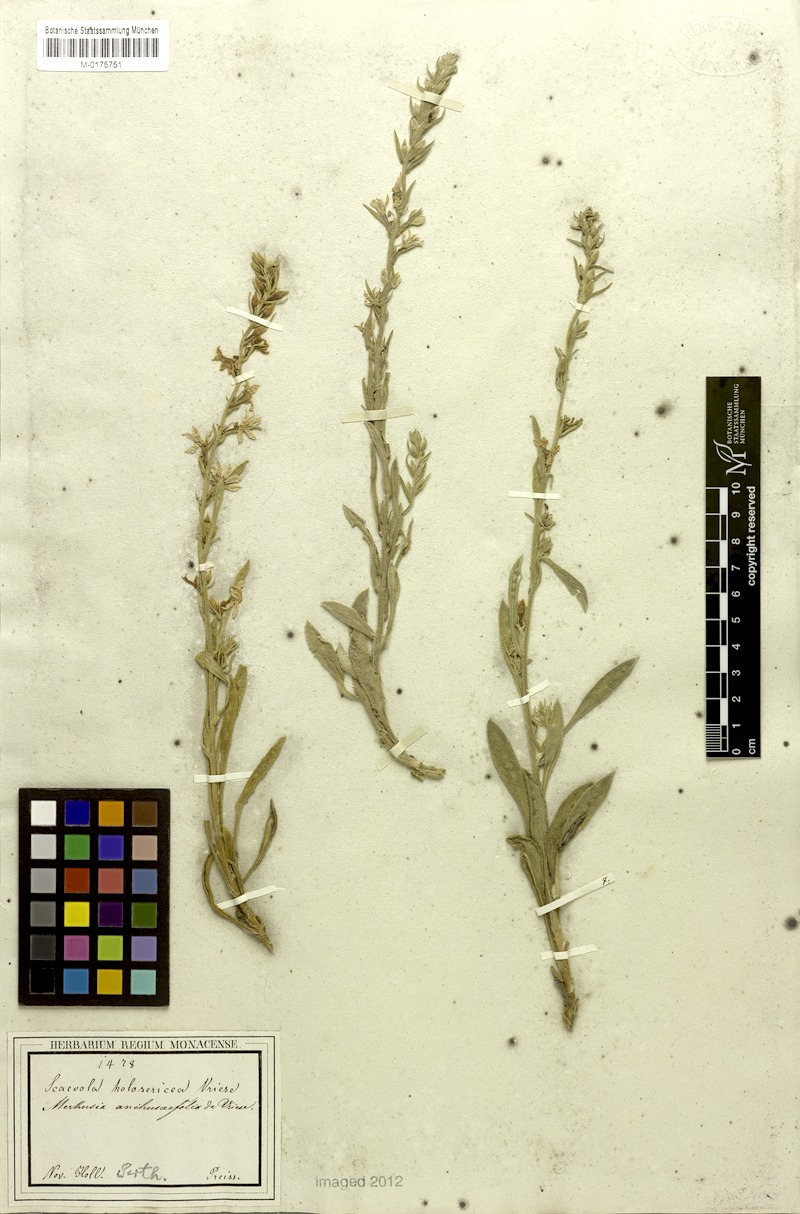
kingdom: Plantae
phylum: Tracheophyta
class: Magnoliopsida
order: Asterales
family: Goodeniaceae
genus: Scaevola
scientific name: Scaevola anchusifolia
